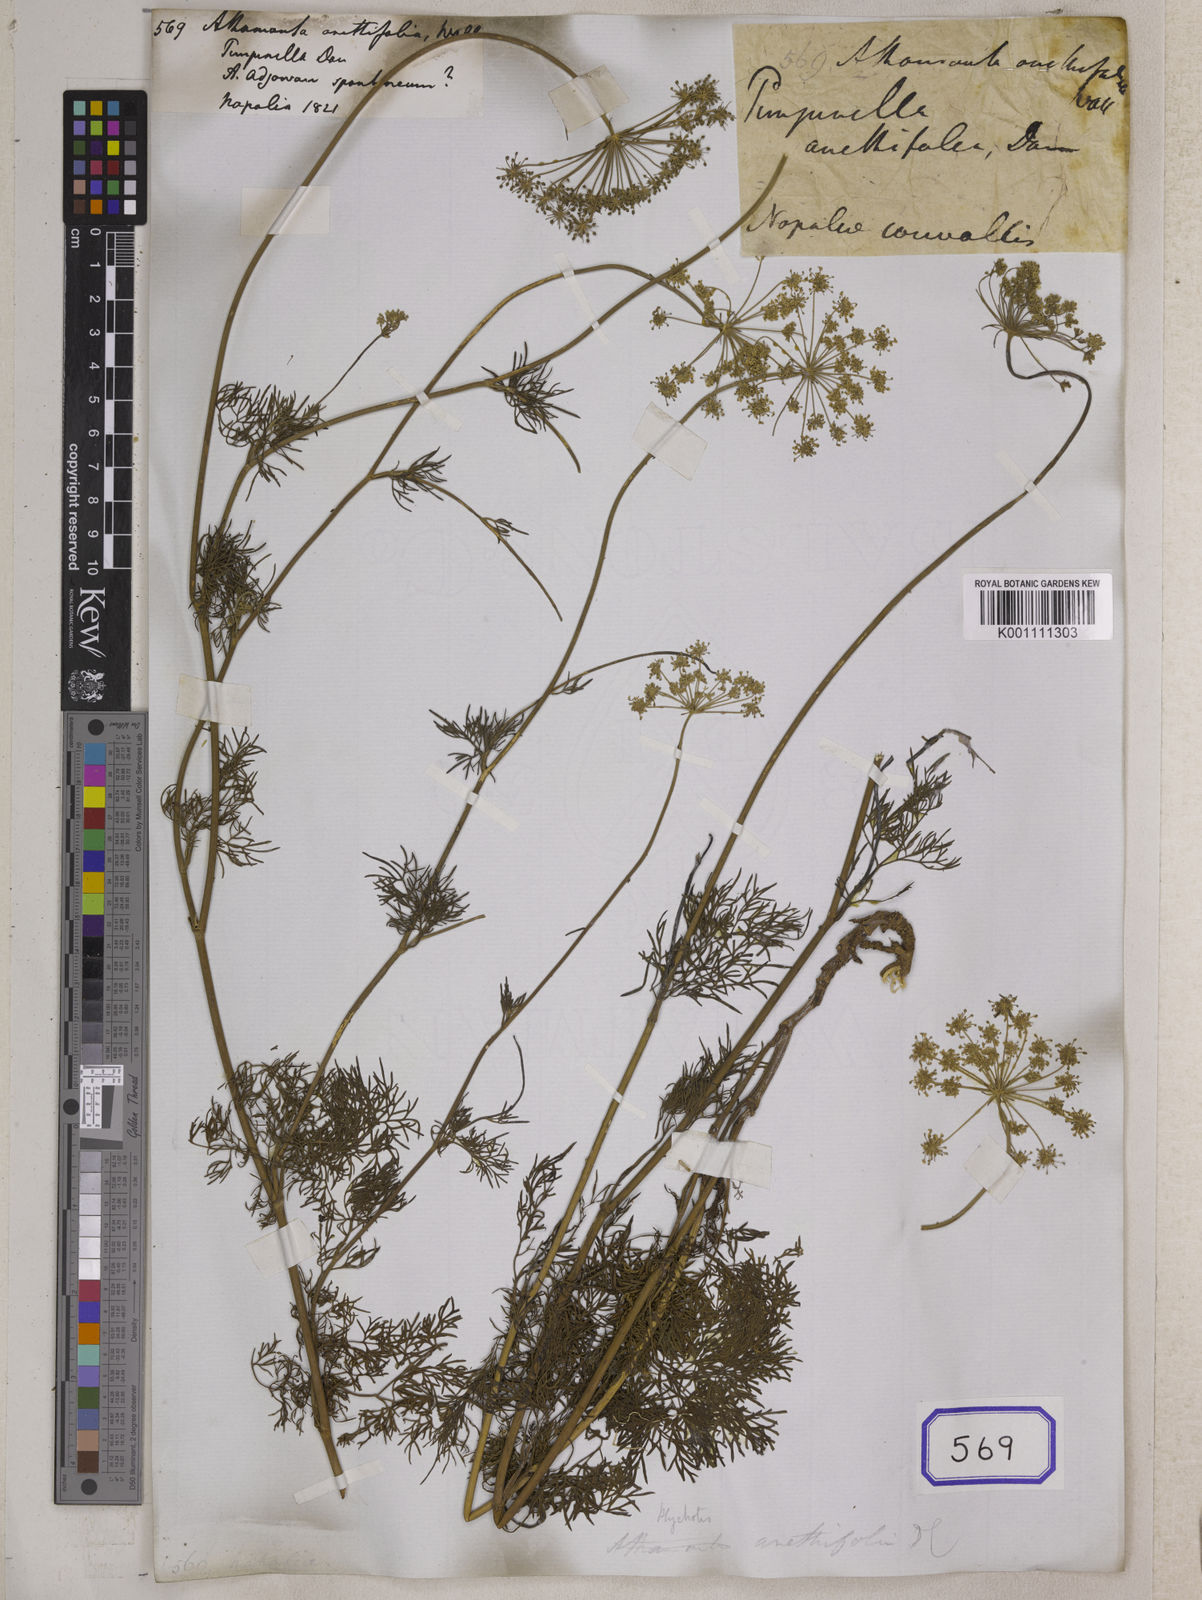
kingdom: Plantae
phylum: Tracheophyta
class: Magnoliopsida
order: Apiales
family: Apiaceae
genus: Psammogeton
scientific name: Psammogeton anethifolium
